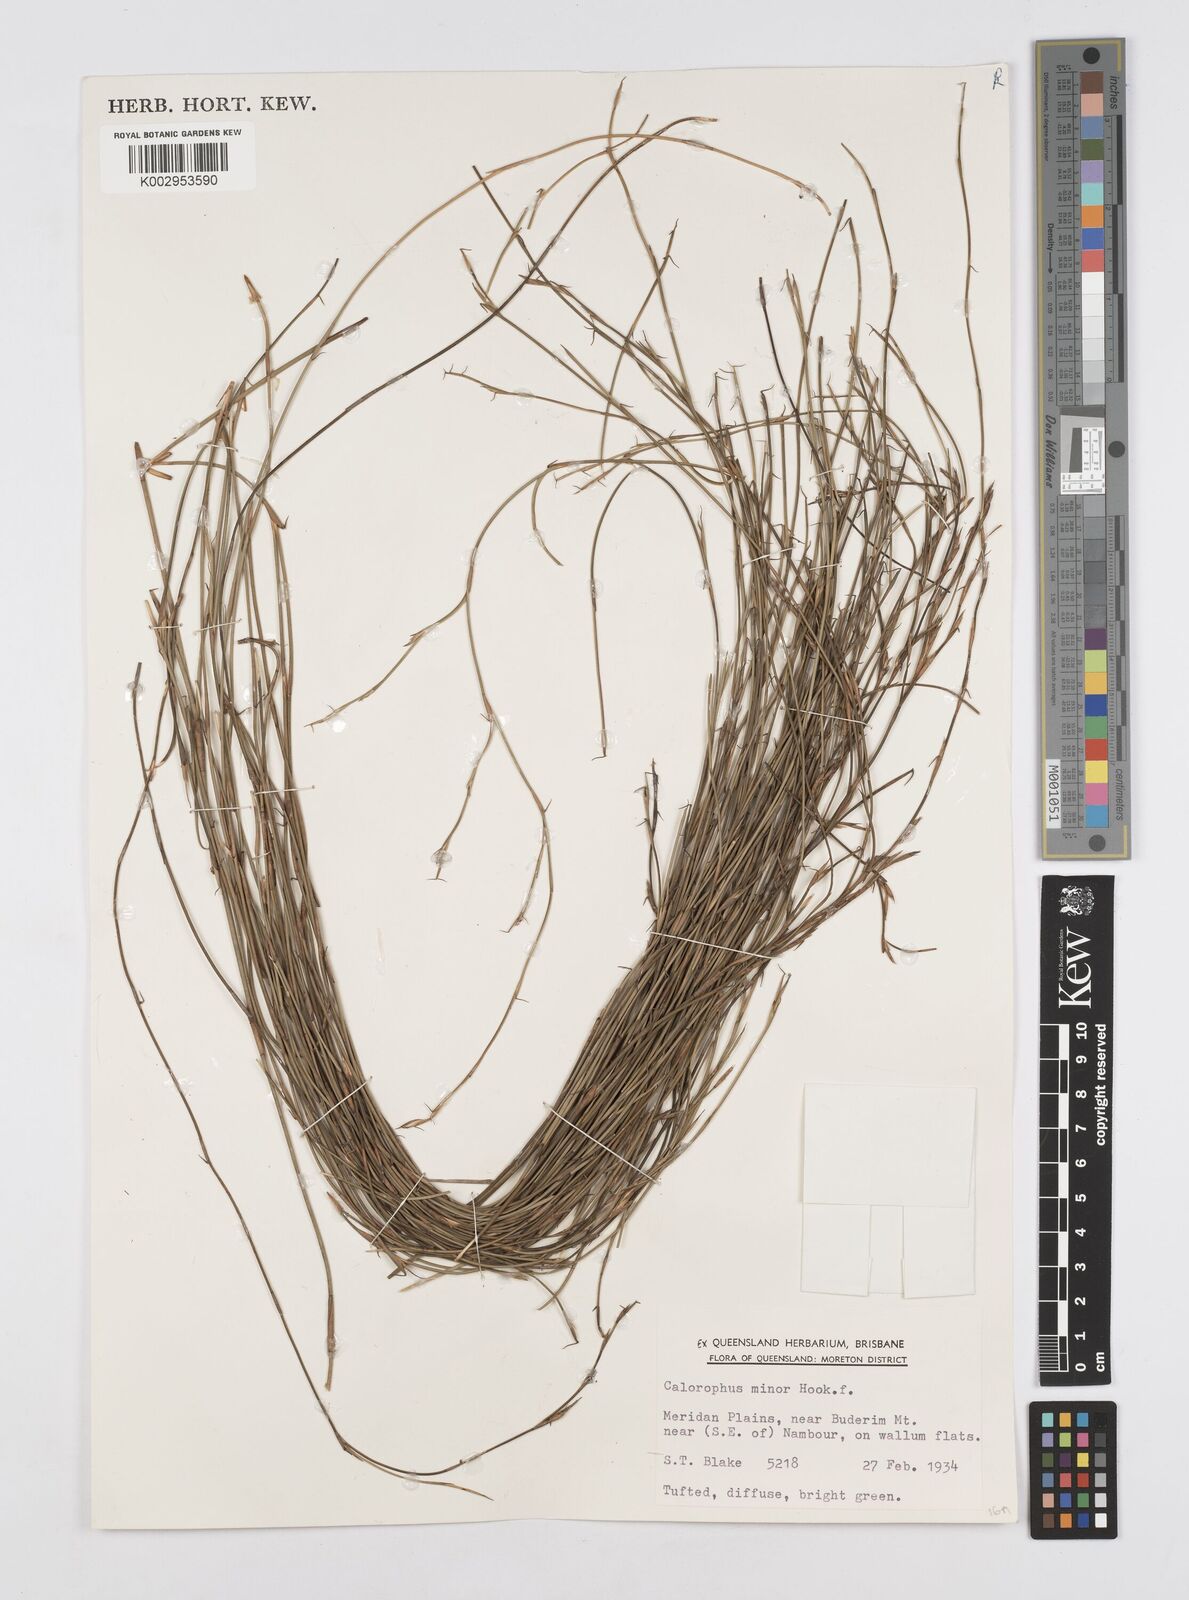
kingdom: Plantae
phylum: Tracheophyta
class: Liliopsida
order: Poales
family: Restionaceae
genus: Empodisma
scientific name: Empodisma minus
